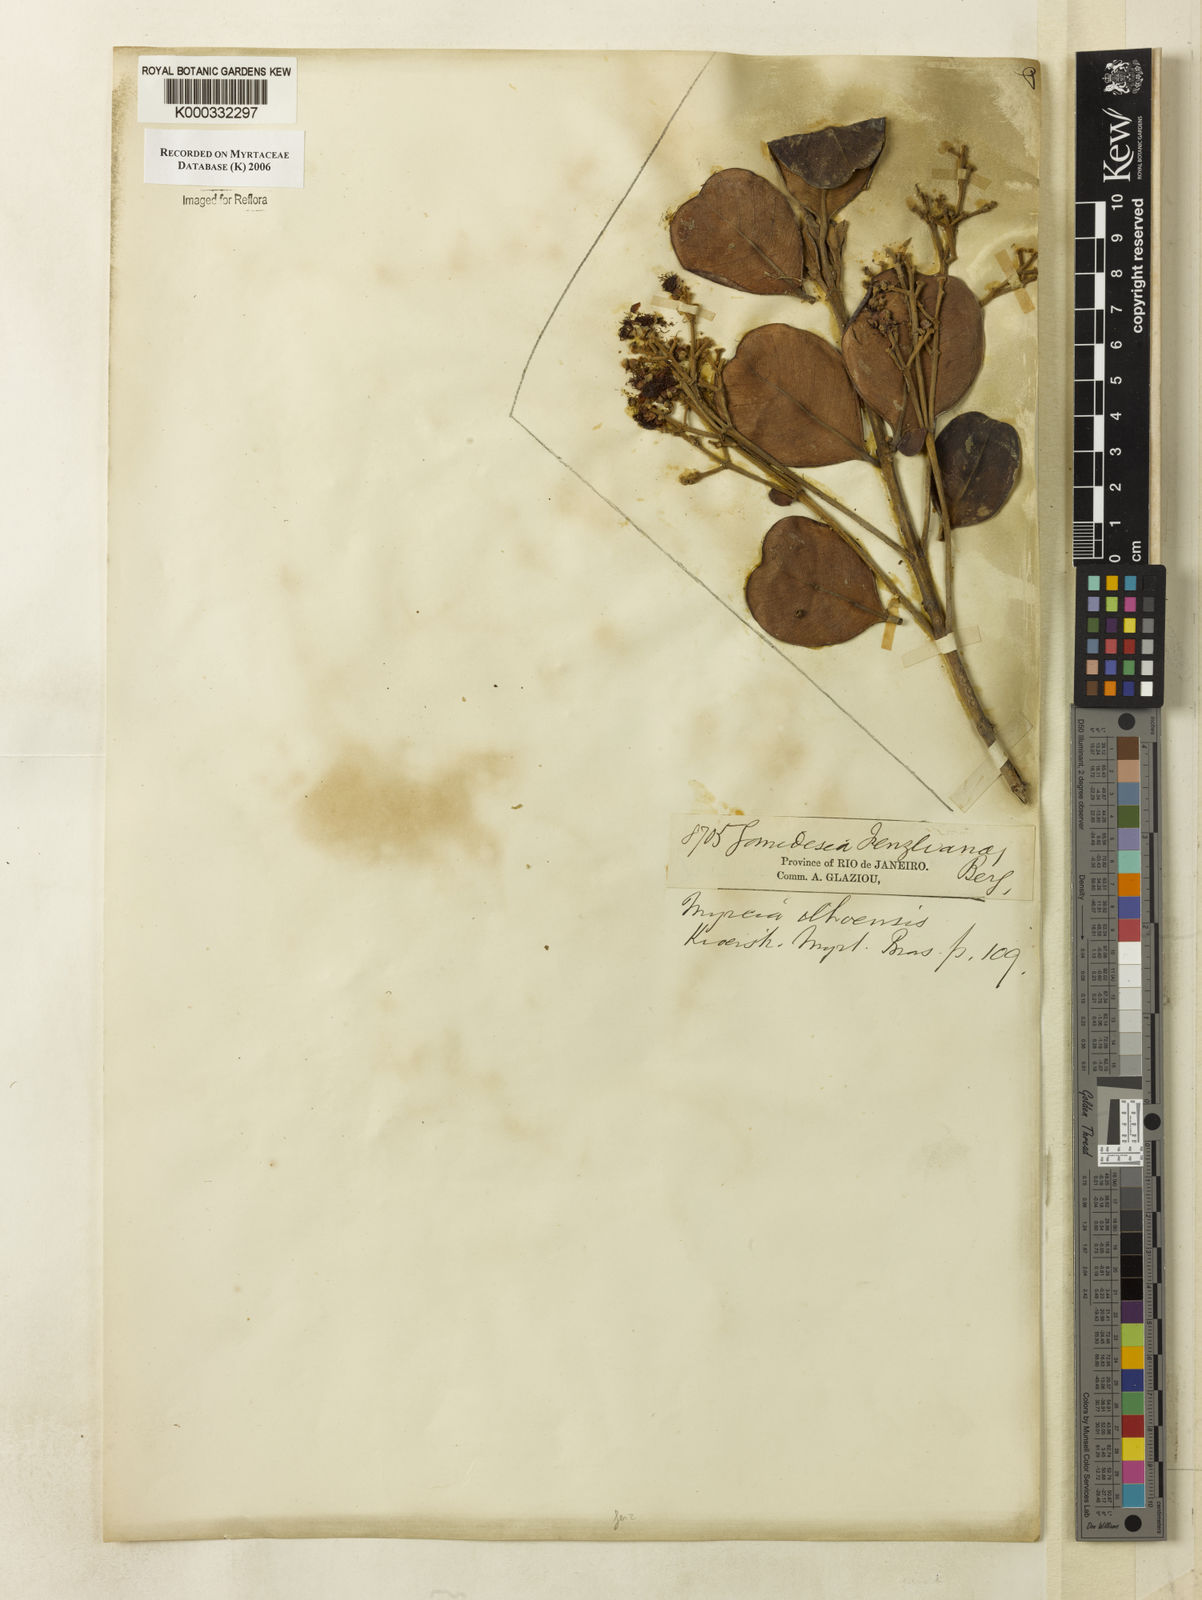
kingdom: Plantae
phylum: Tracheophyta
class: Magnoliopsida
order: Myrtales
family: Myrtaceae
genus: Myrcia
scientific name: Myrcia ilheosensis
